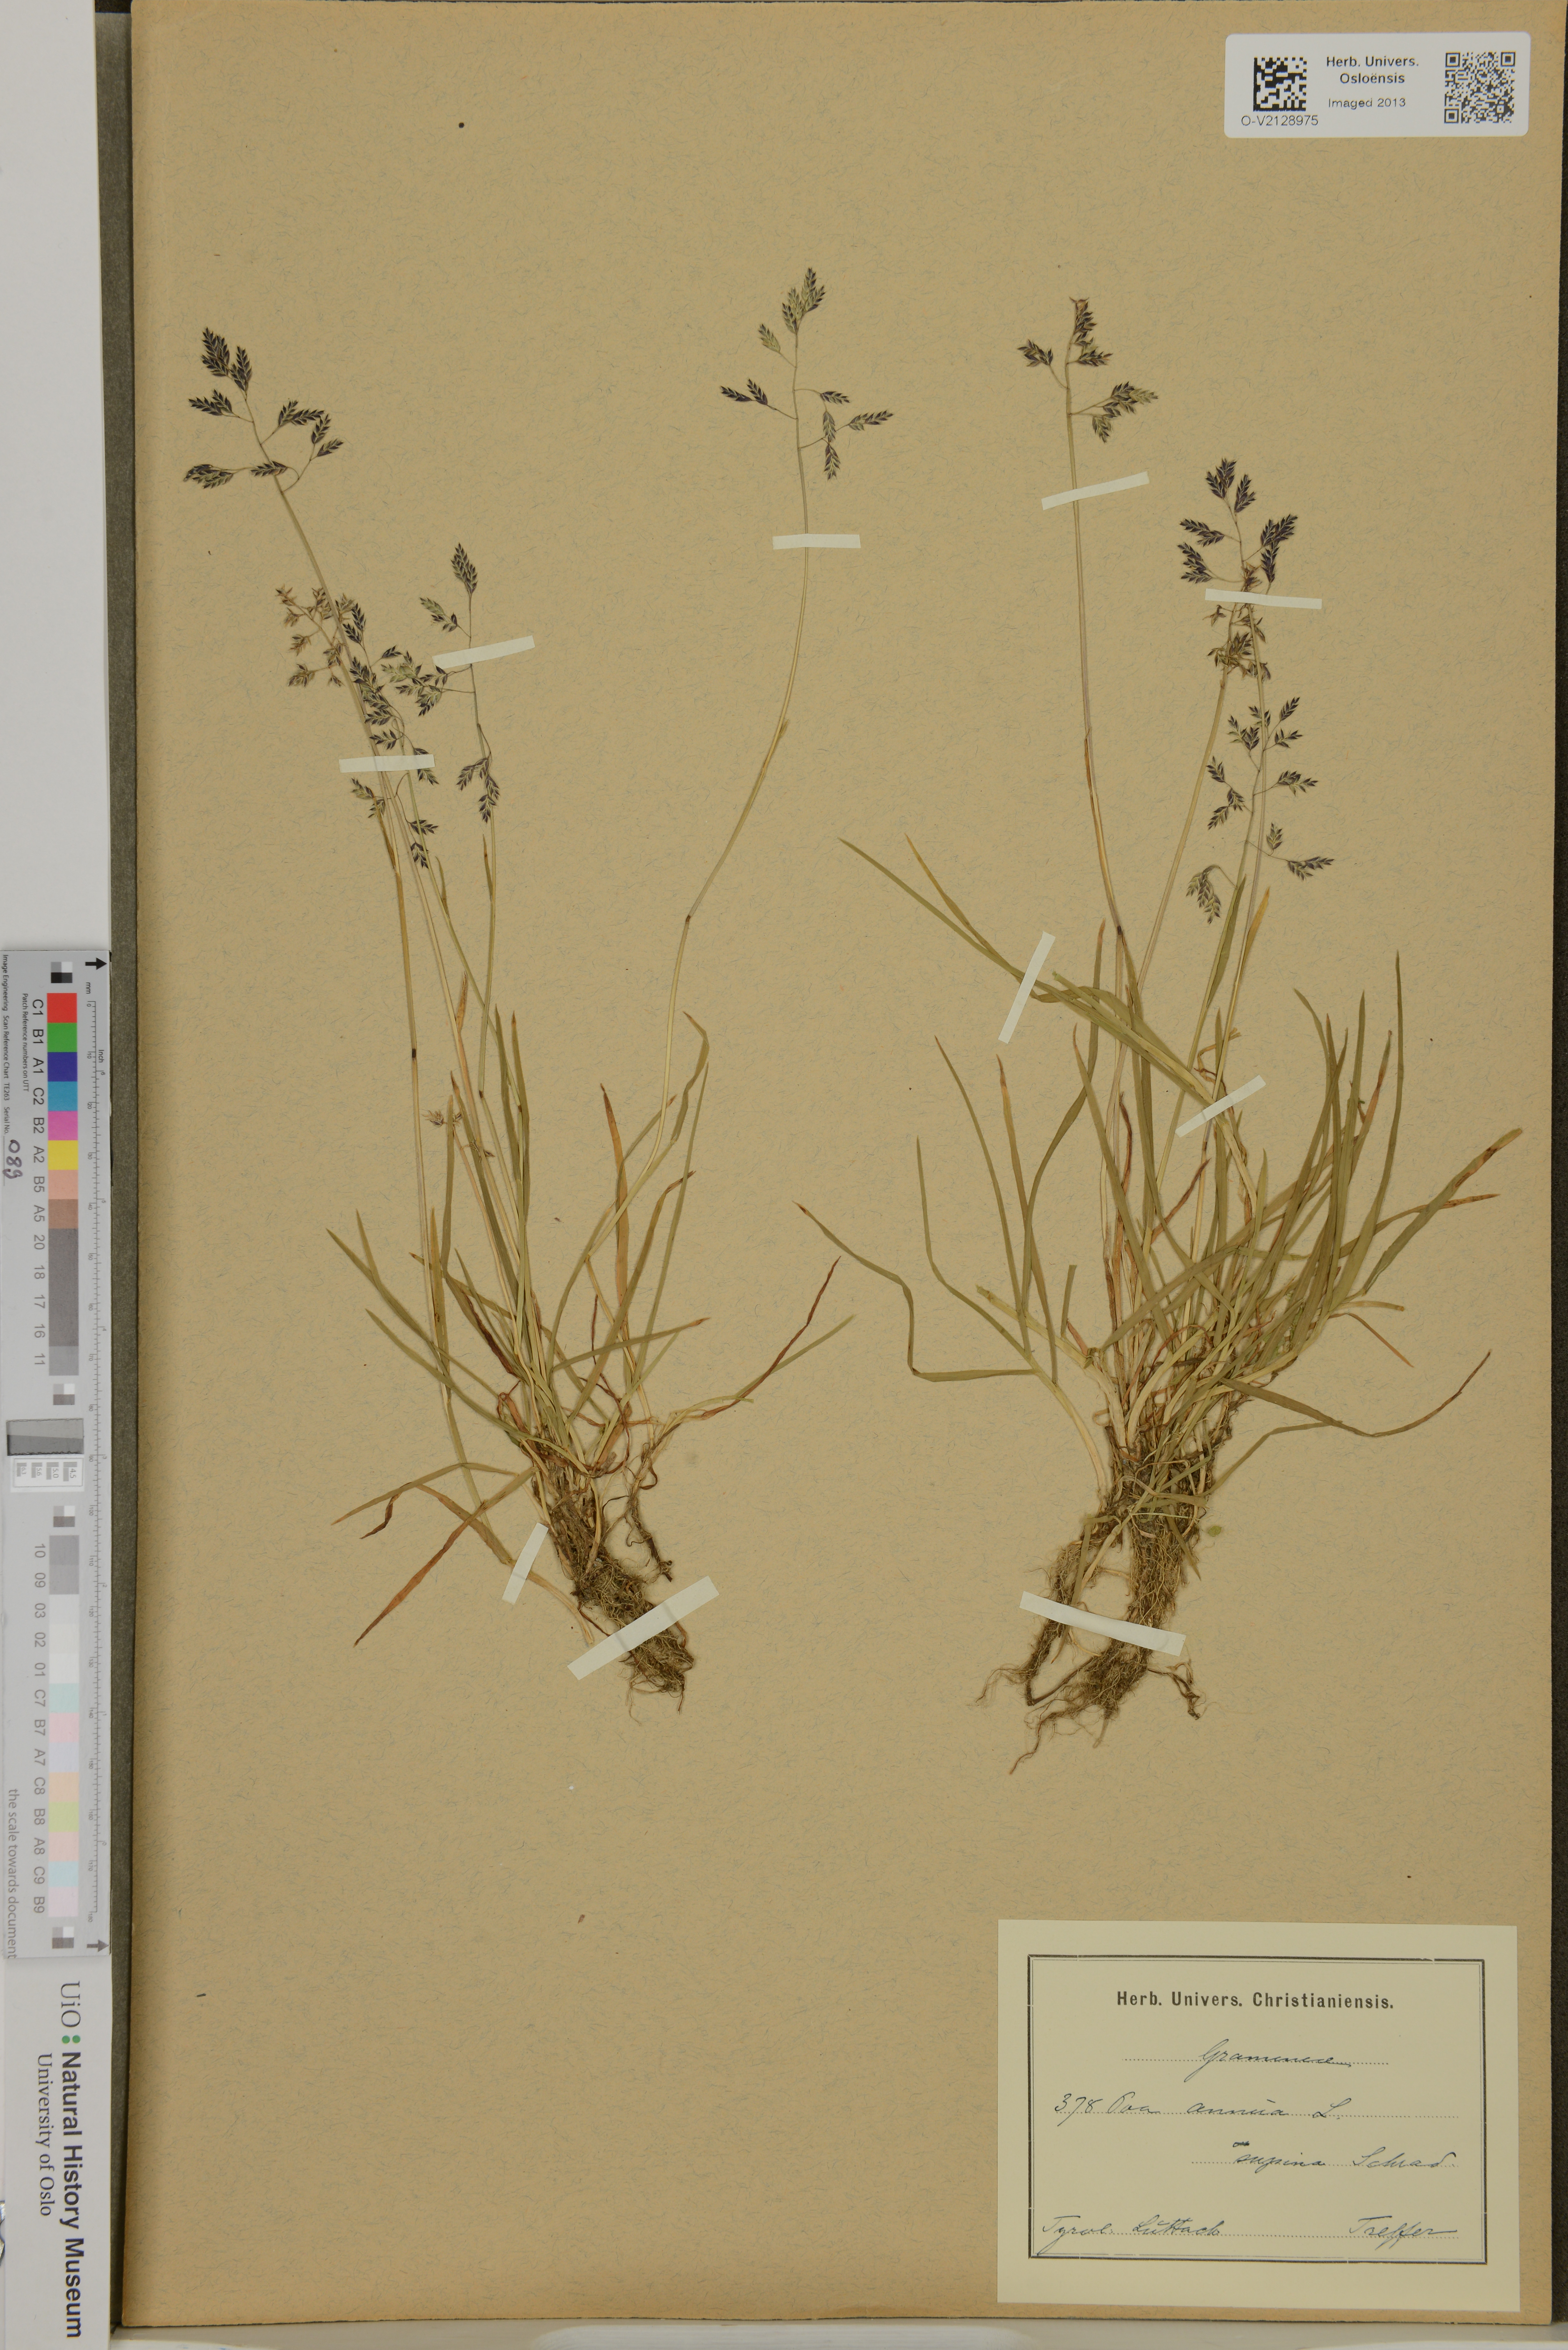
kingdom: Plantae
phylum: Tracheophyta
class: Liliopsida
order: Poales
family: Poaceae
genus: Poa
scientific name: Poa annua
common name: Annual bluegrass
